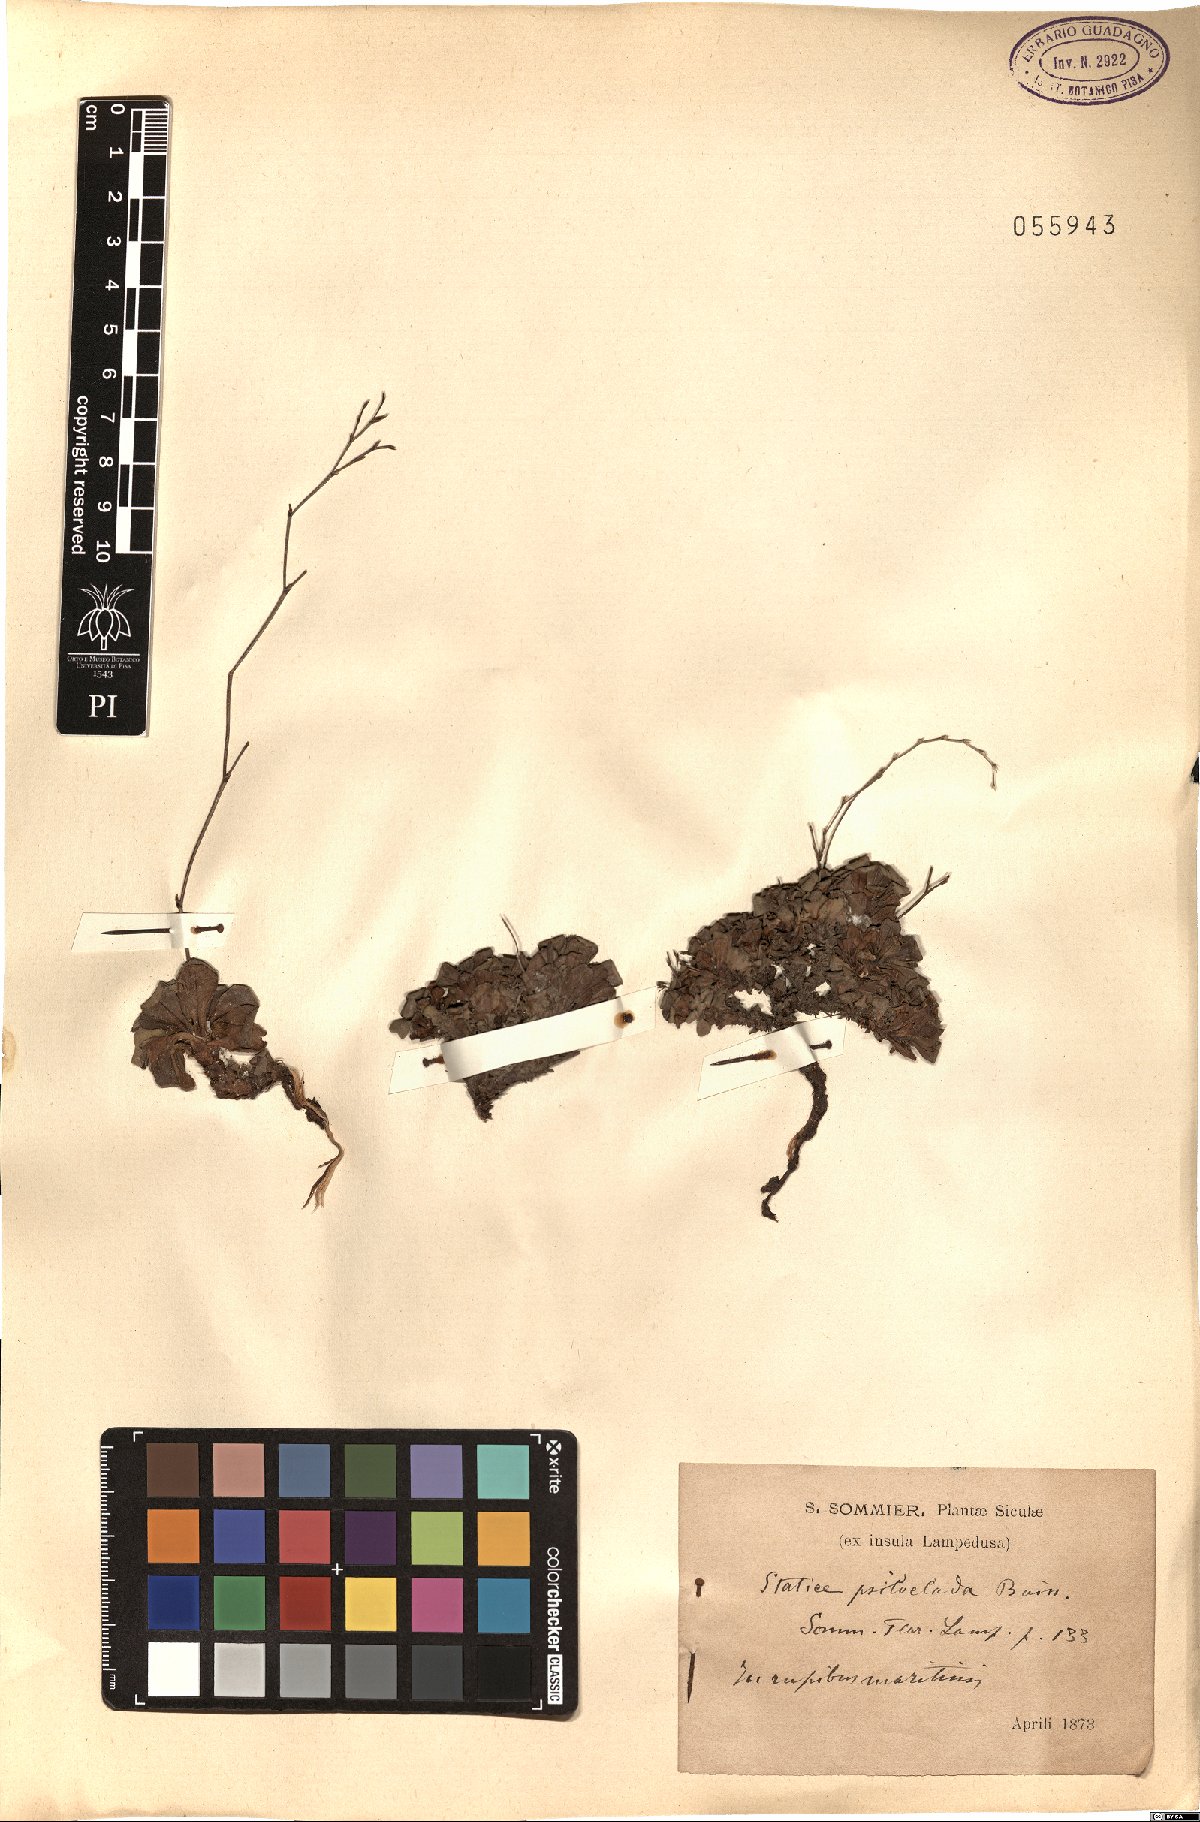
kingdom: Plantae
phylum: Tracheophyta
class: Magnoliopsida
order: Caryophyllales
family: Plumbaginaceae
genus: Limonium
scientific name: Limonium pescadense
